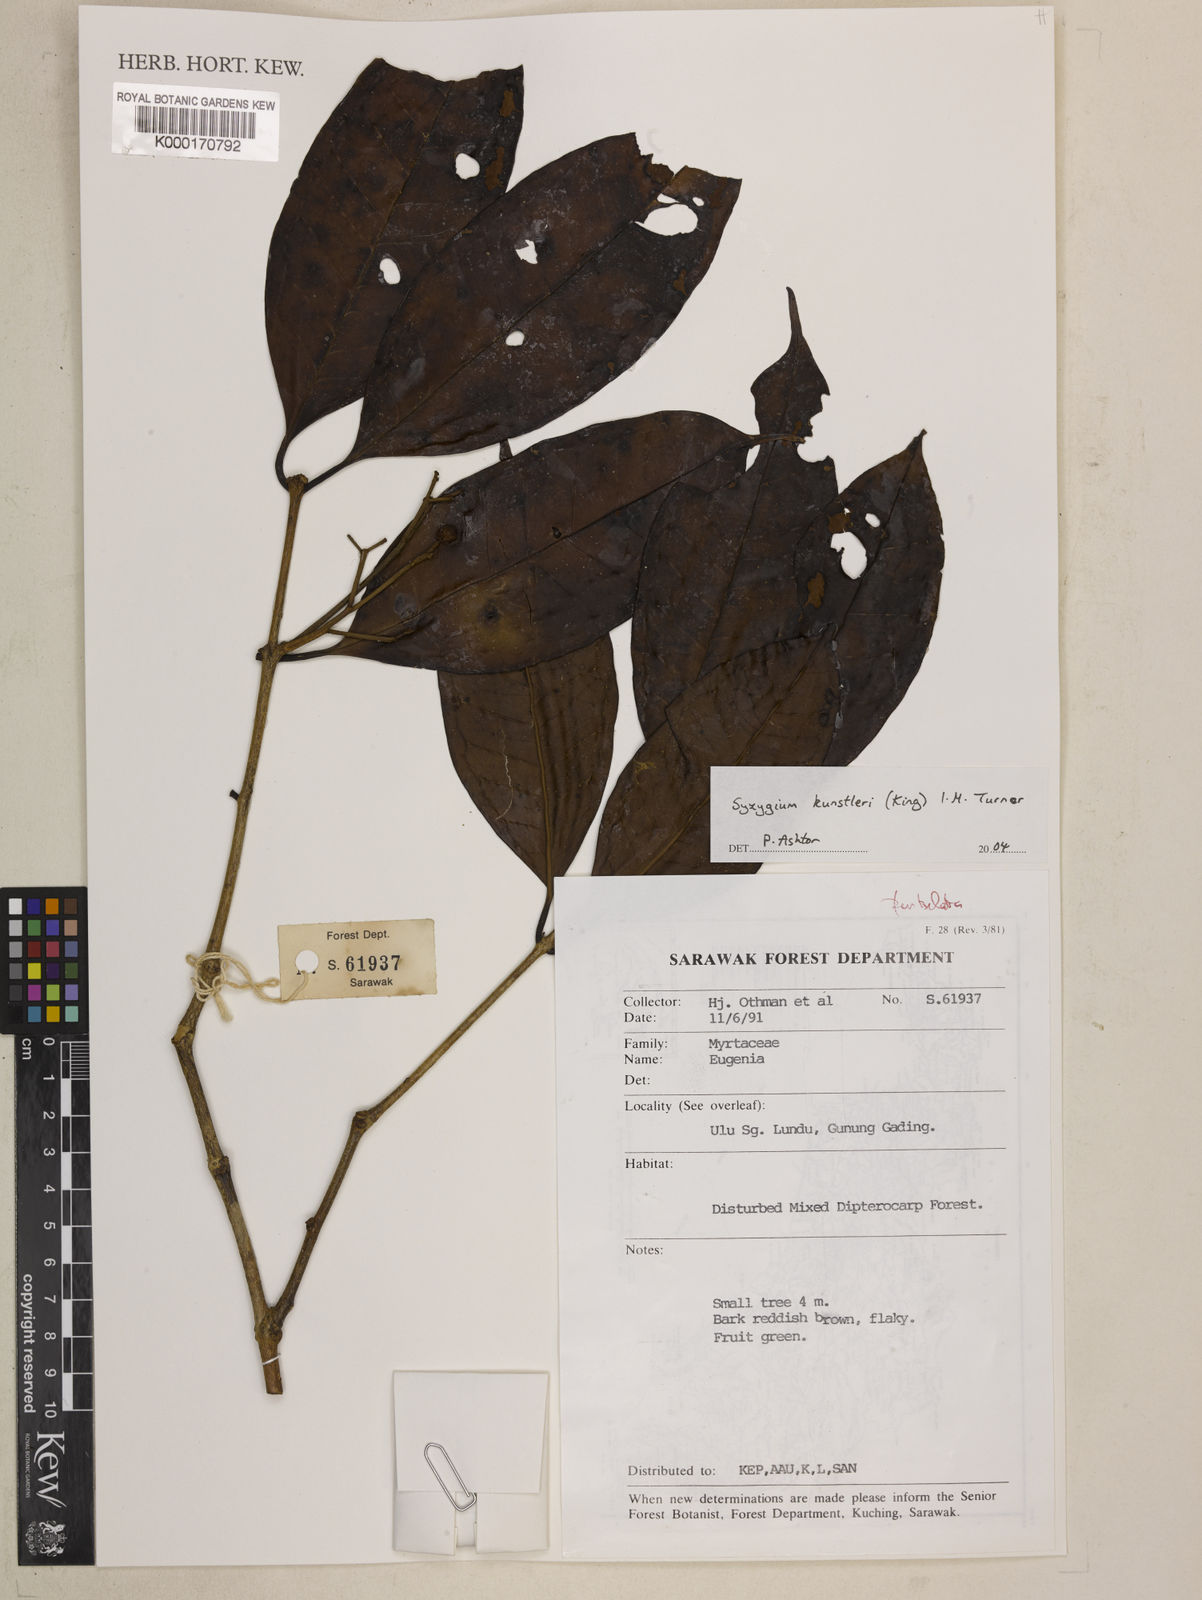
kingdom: Plantae
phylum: Tracheophyta
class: Magnoliopsida
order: Myrtales
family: Myrtaceae
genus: Syzygium
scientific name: Syzygium
